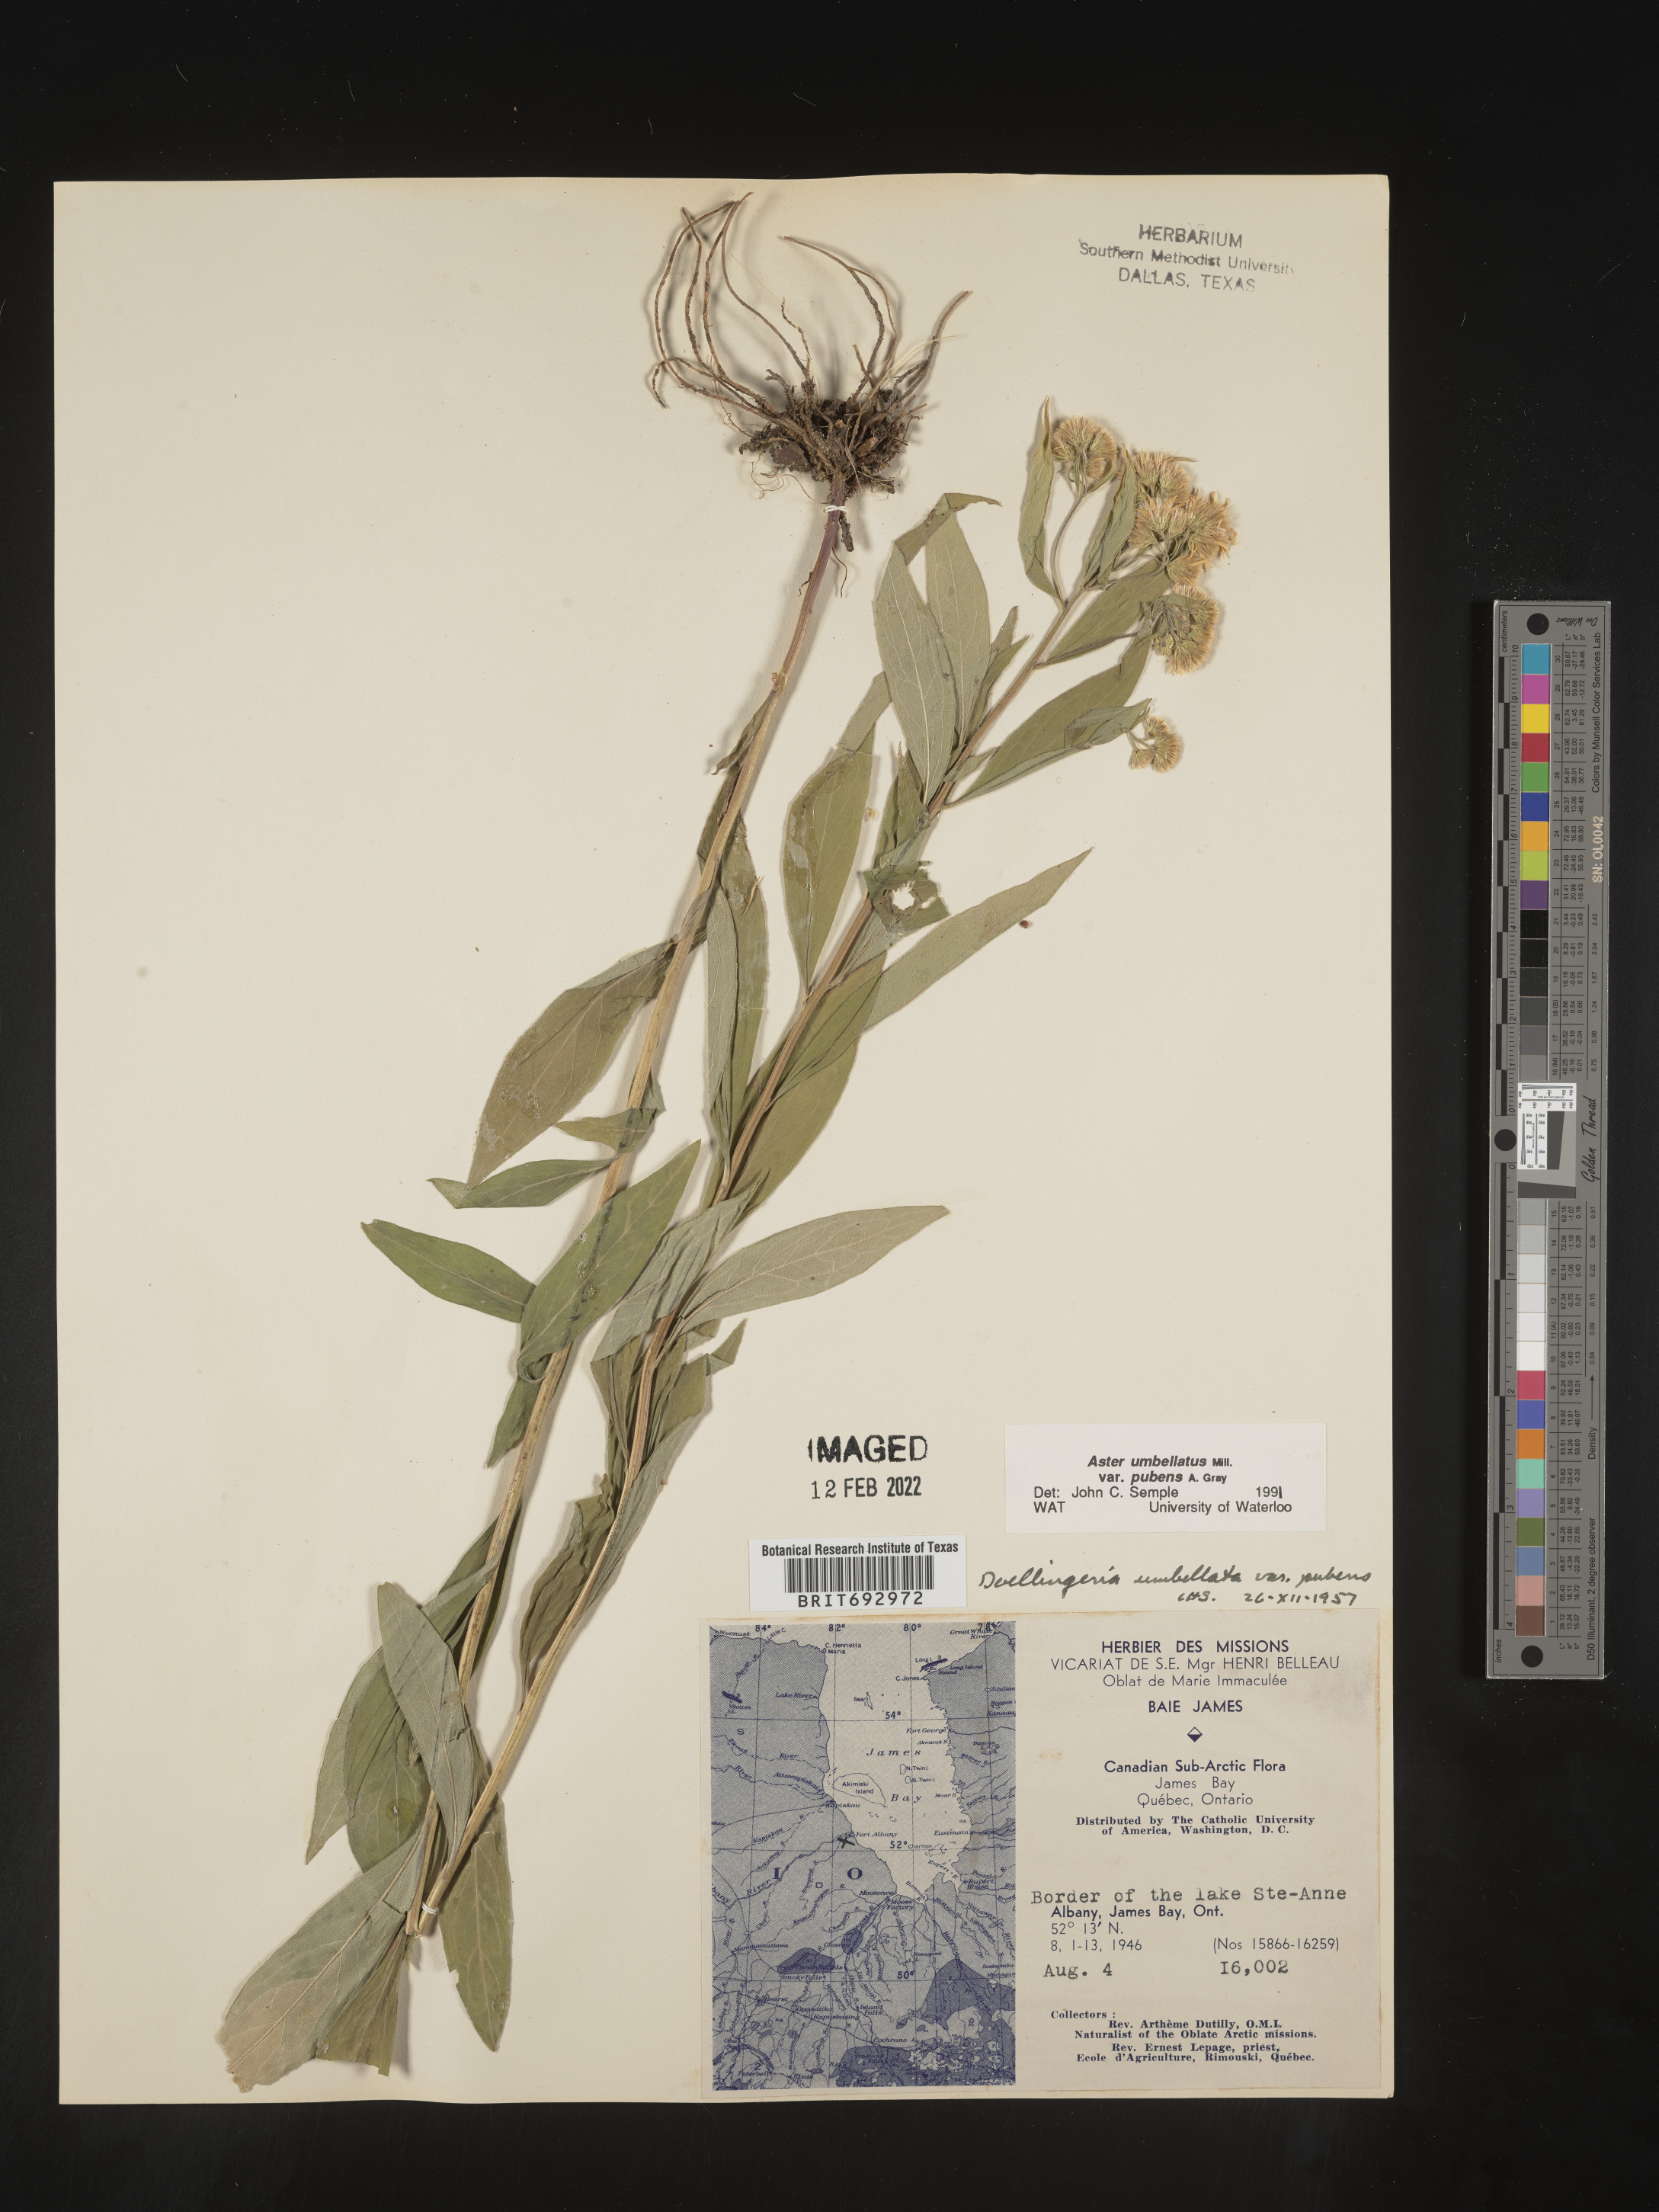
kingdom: Plantae
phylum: Tracheophyta
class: Magnoliopsida
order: Asterales
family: Asteraceae
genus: Doellingeria
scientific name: Doellingeria umbellata
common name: Flat-top white aster
